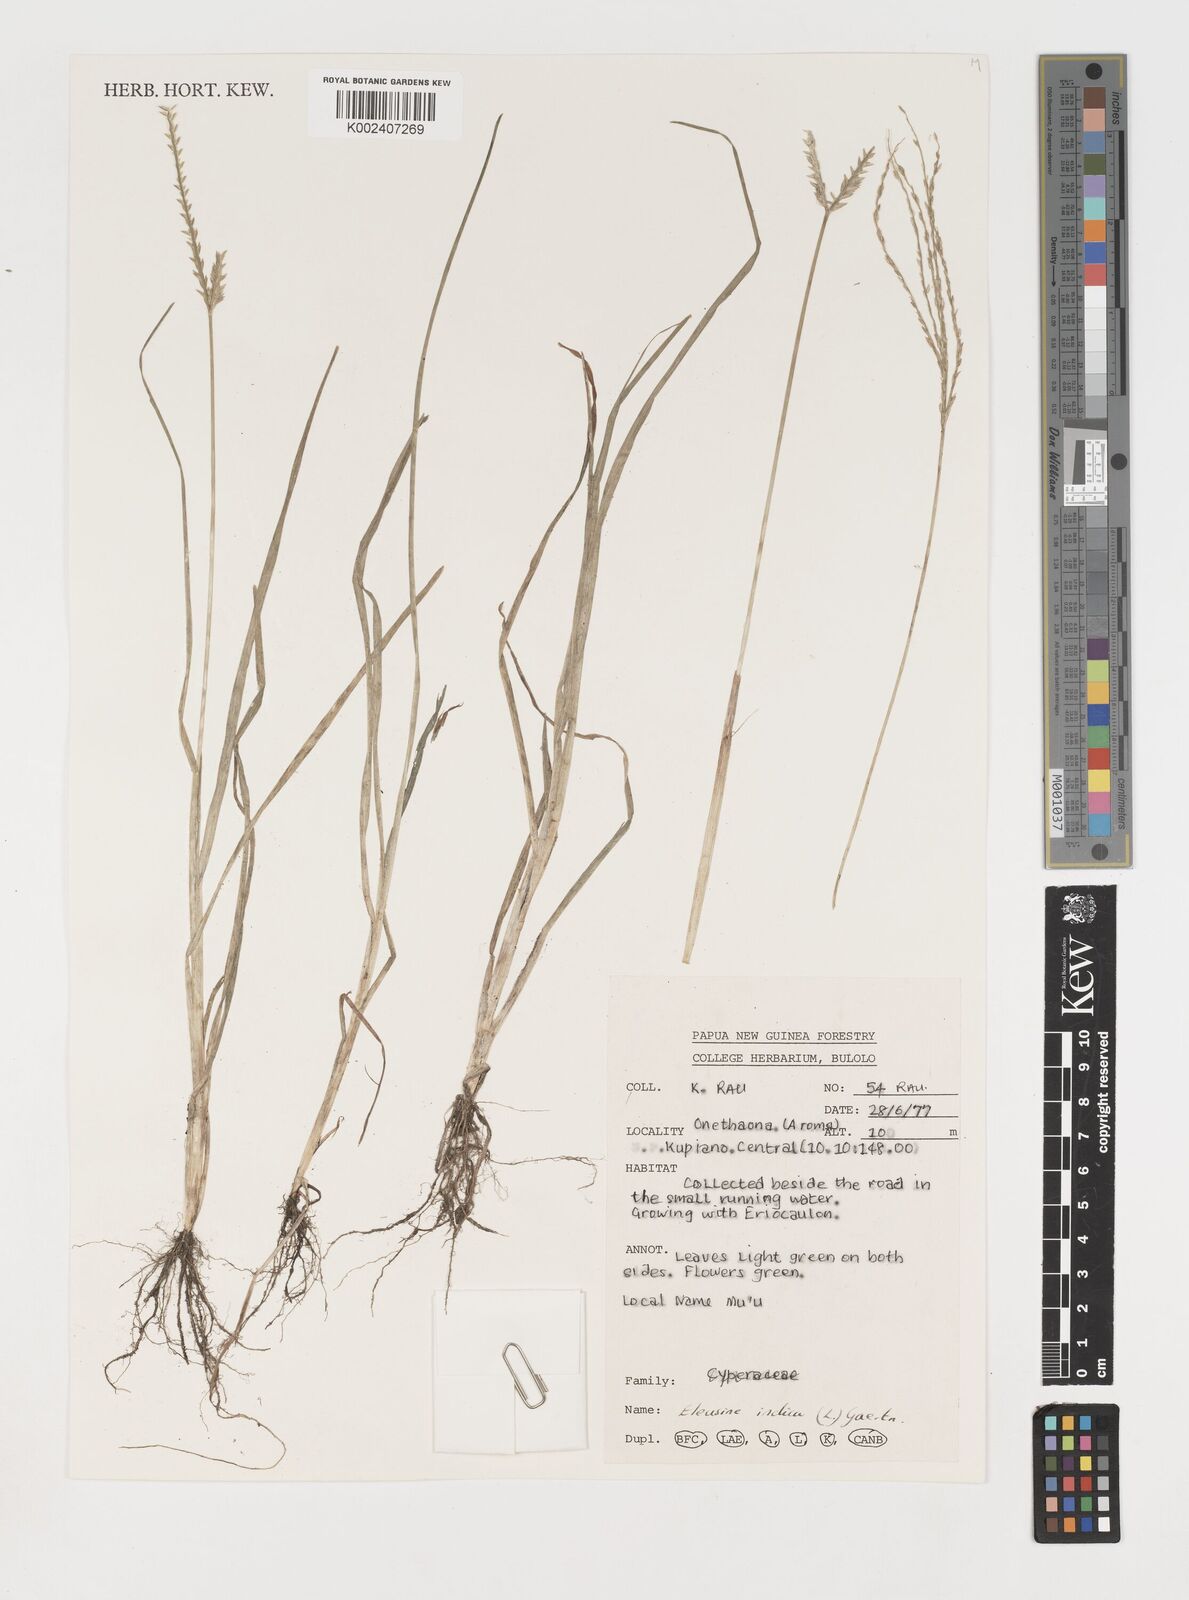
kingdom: Plantae
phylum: Tracheophyta
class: Liliopsida
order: Poales
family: Poaceae
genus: Eleusine
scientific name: Eleusine indica
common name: Yard-grass
